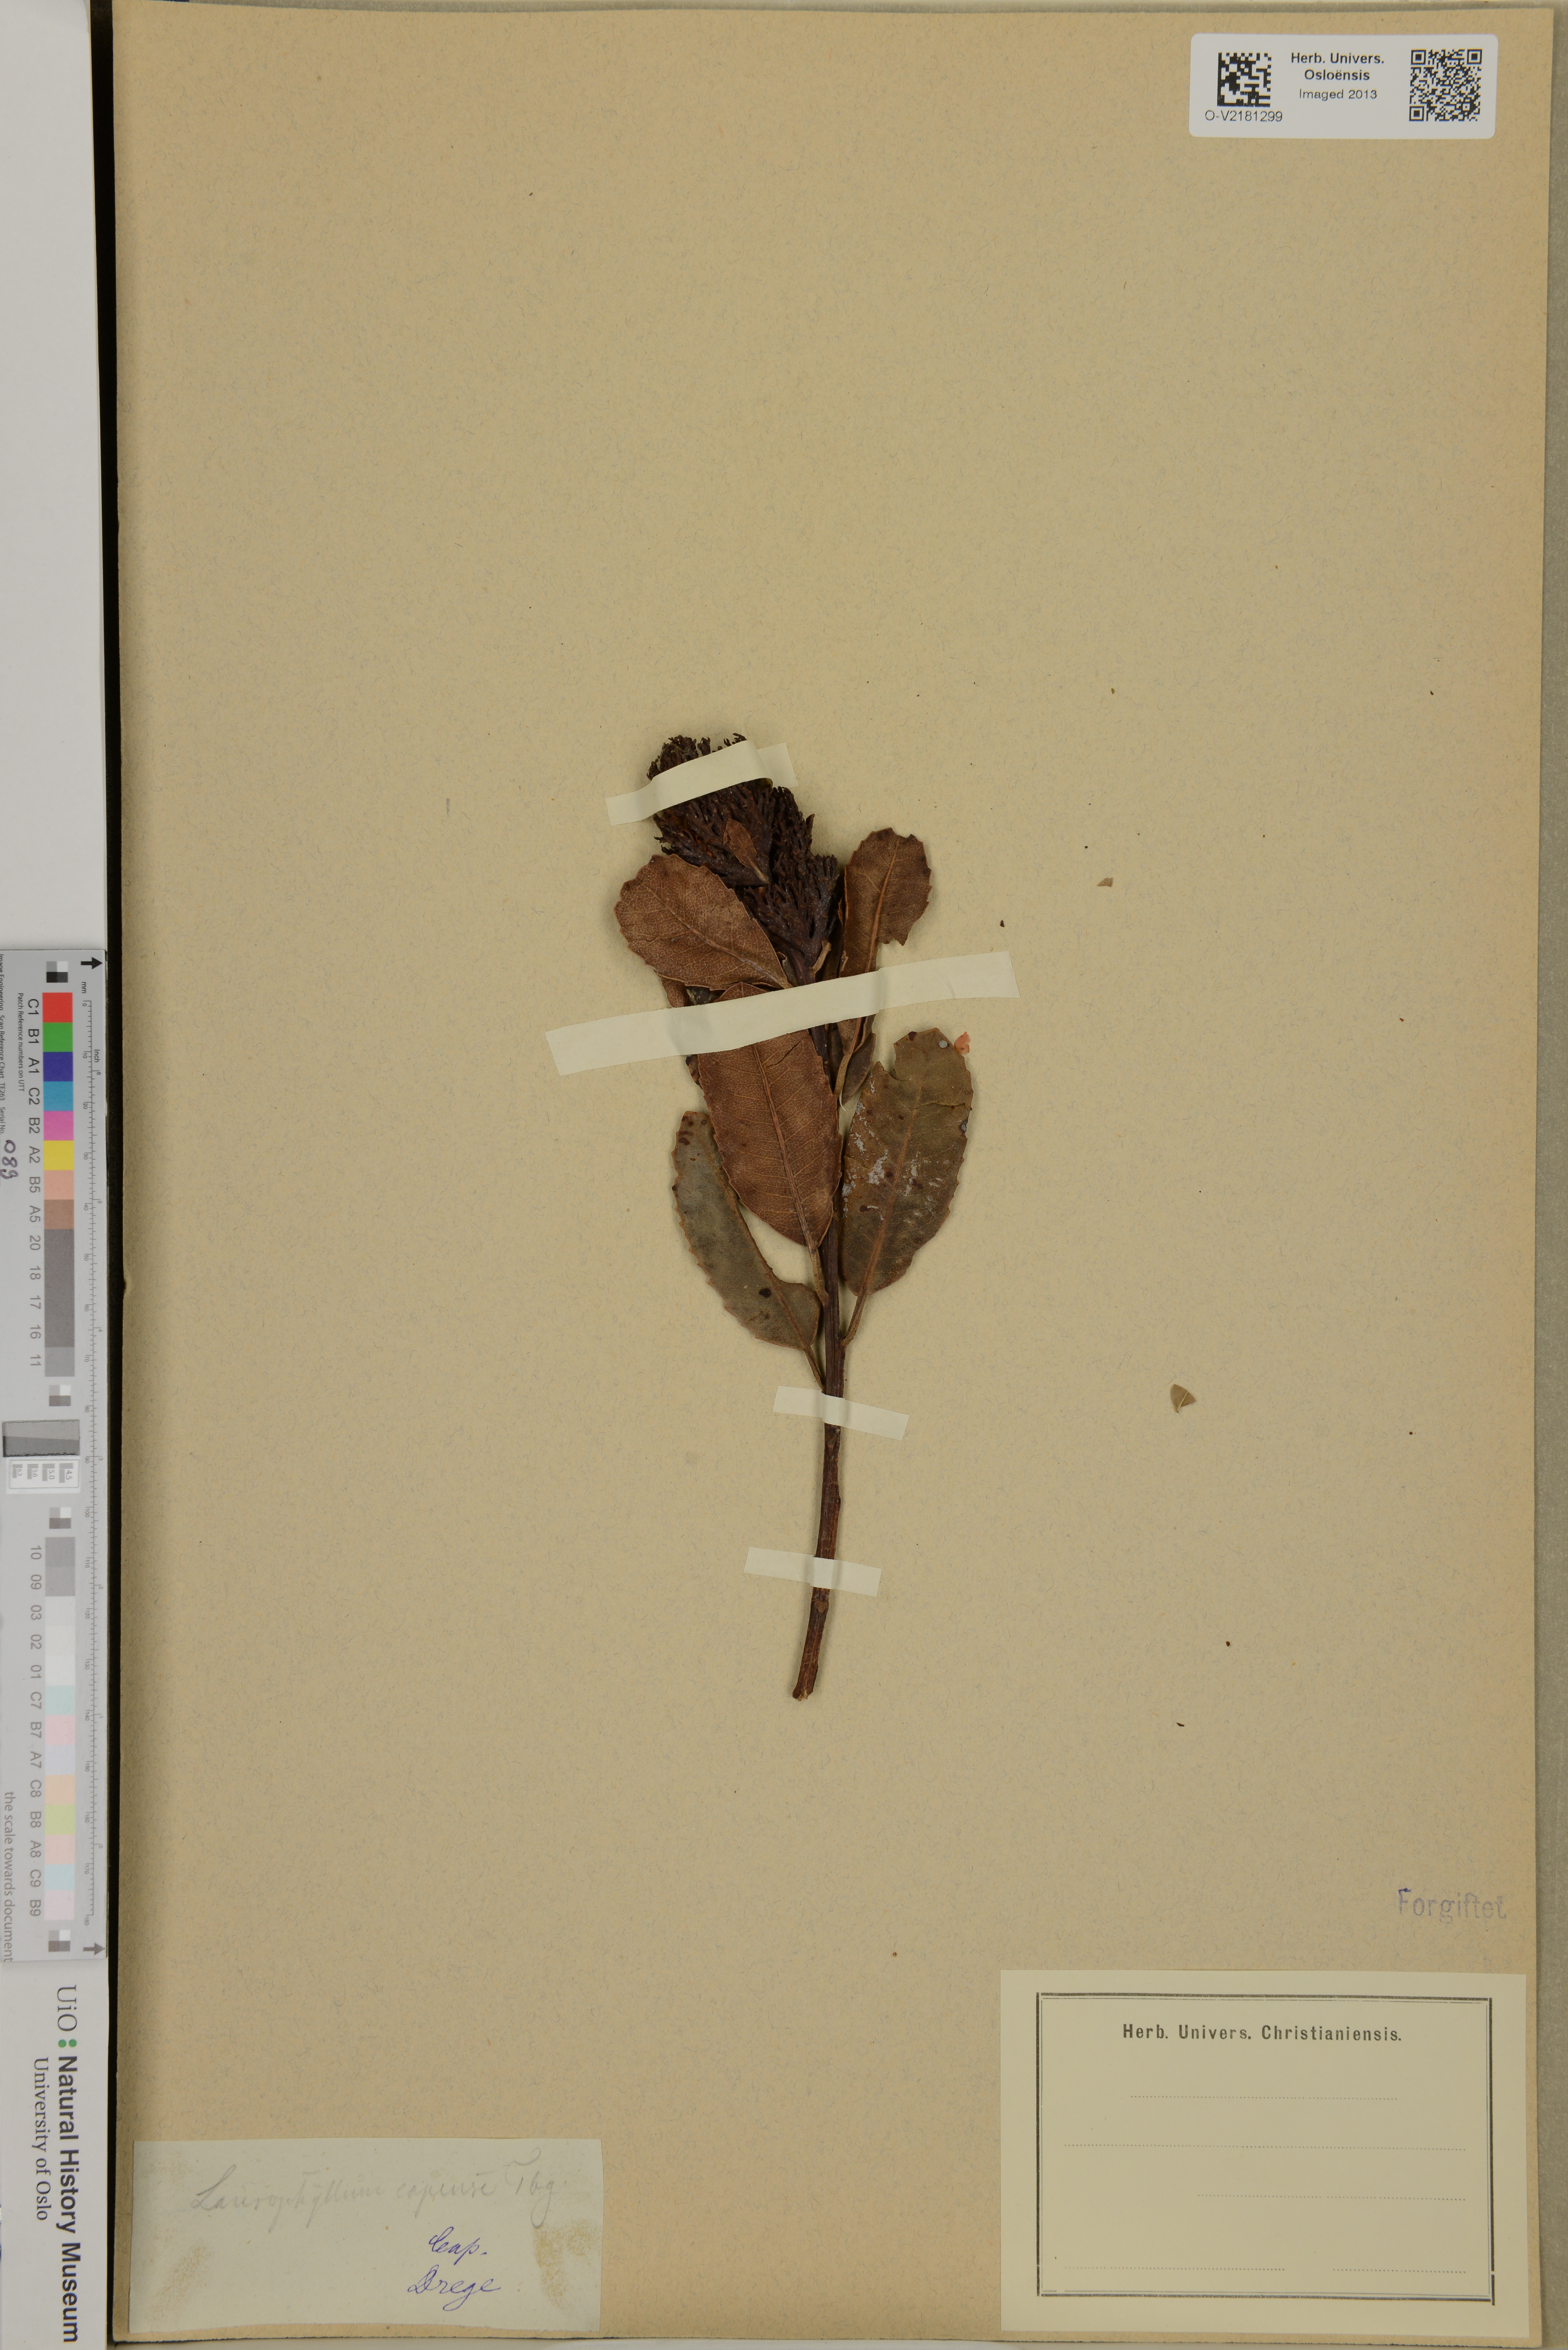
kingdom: Plantae
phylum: Tracheophyta
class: Magnoliopsida
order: Sapindales
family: Anacardiaceae
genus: Laurophyllus
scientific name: Laurophyllus capensis
